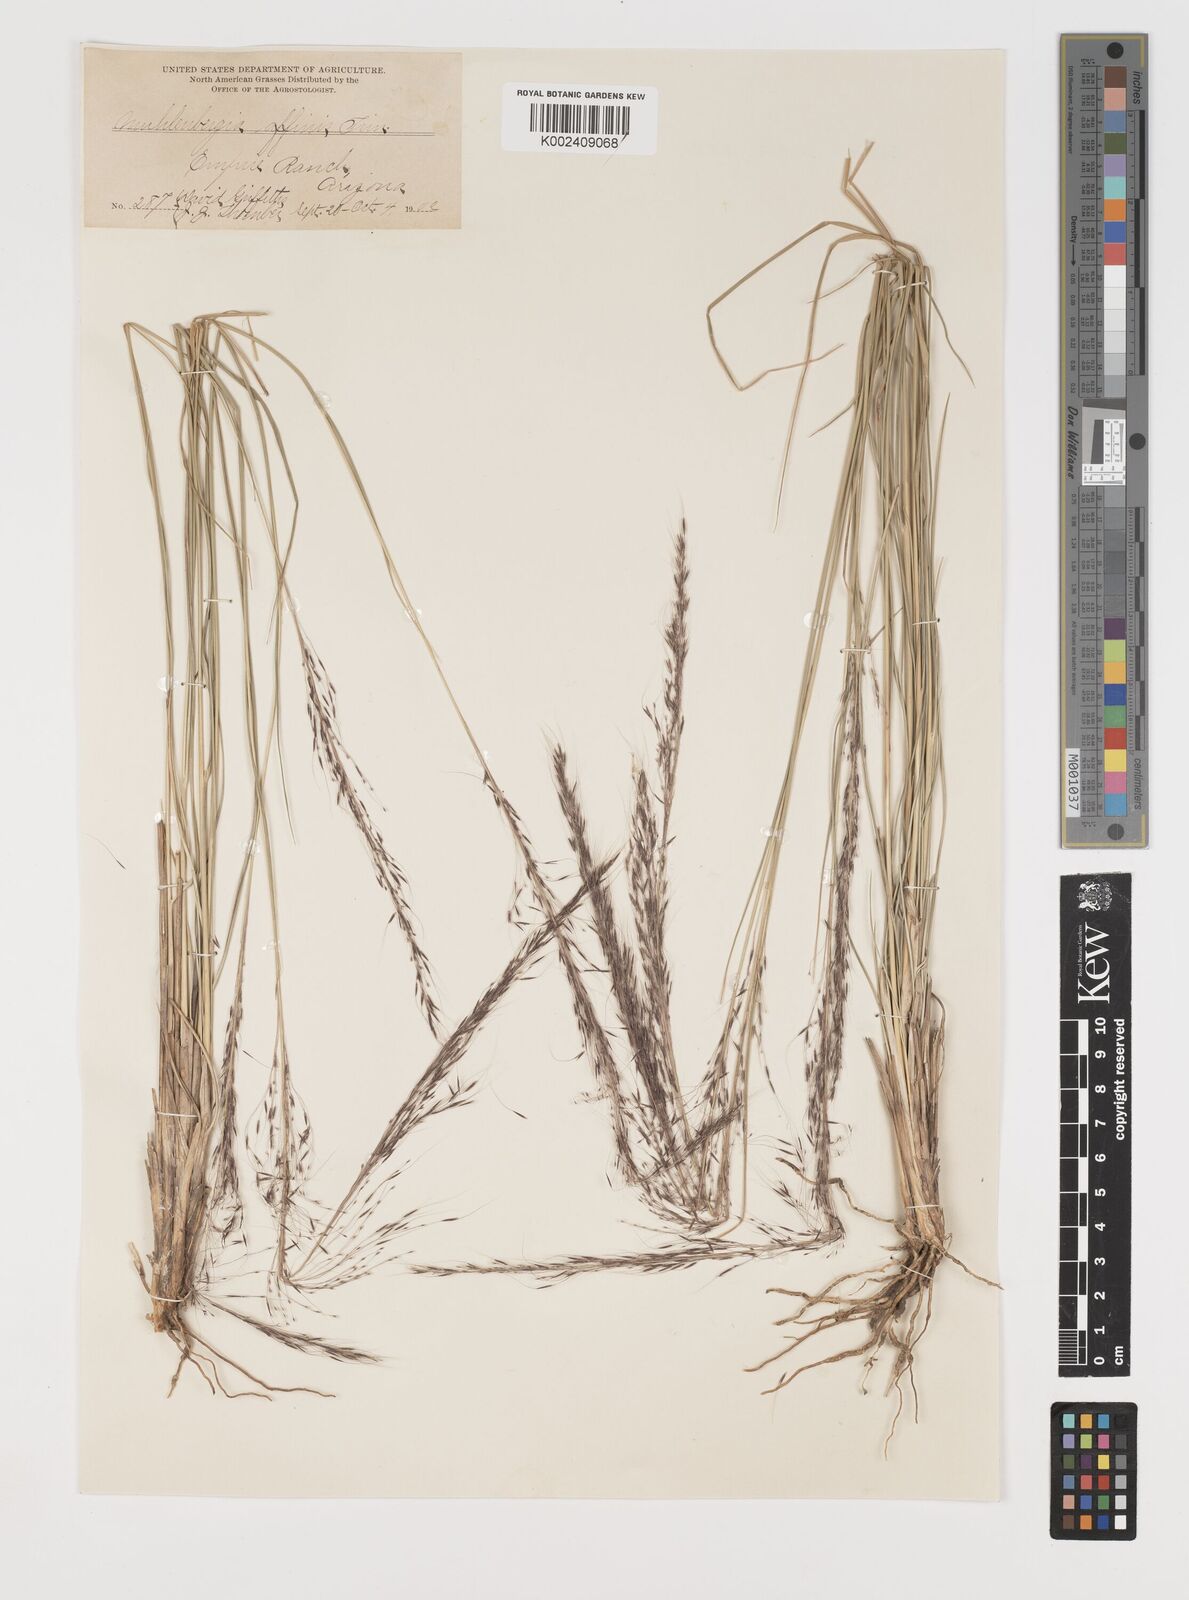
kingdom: Plantae
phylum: Tracheophyta
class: Liliopsida
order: Poales
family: Poaceae
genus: Muhlenbergia
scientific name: Muhlenbergia rigida
